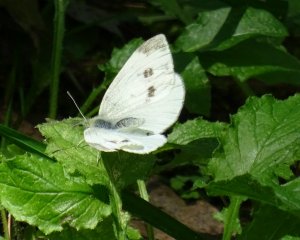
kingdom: Animalia
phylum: Arthropoda
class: Insecta
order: Lepidoptera
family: Pieridae
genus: Pieris
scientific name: Pieris rapae
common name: Cabbage White
